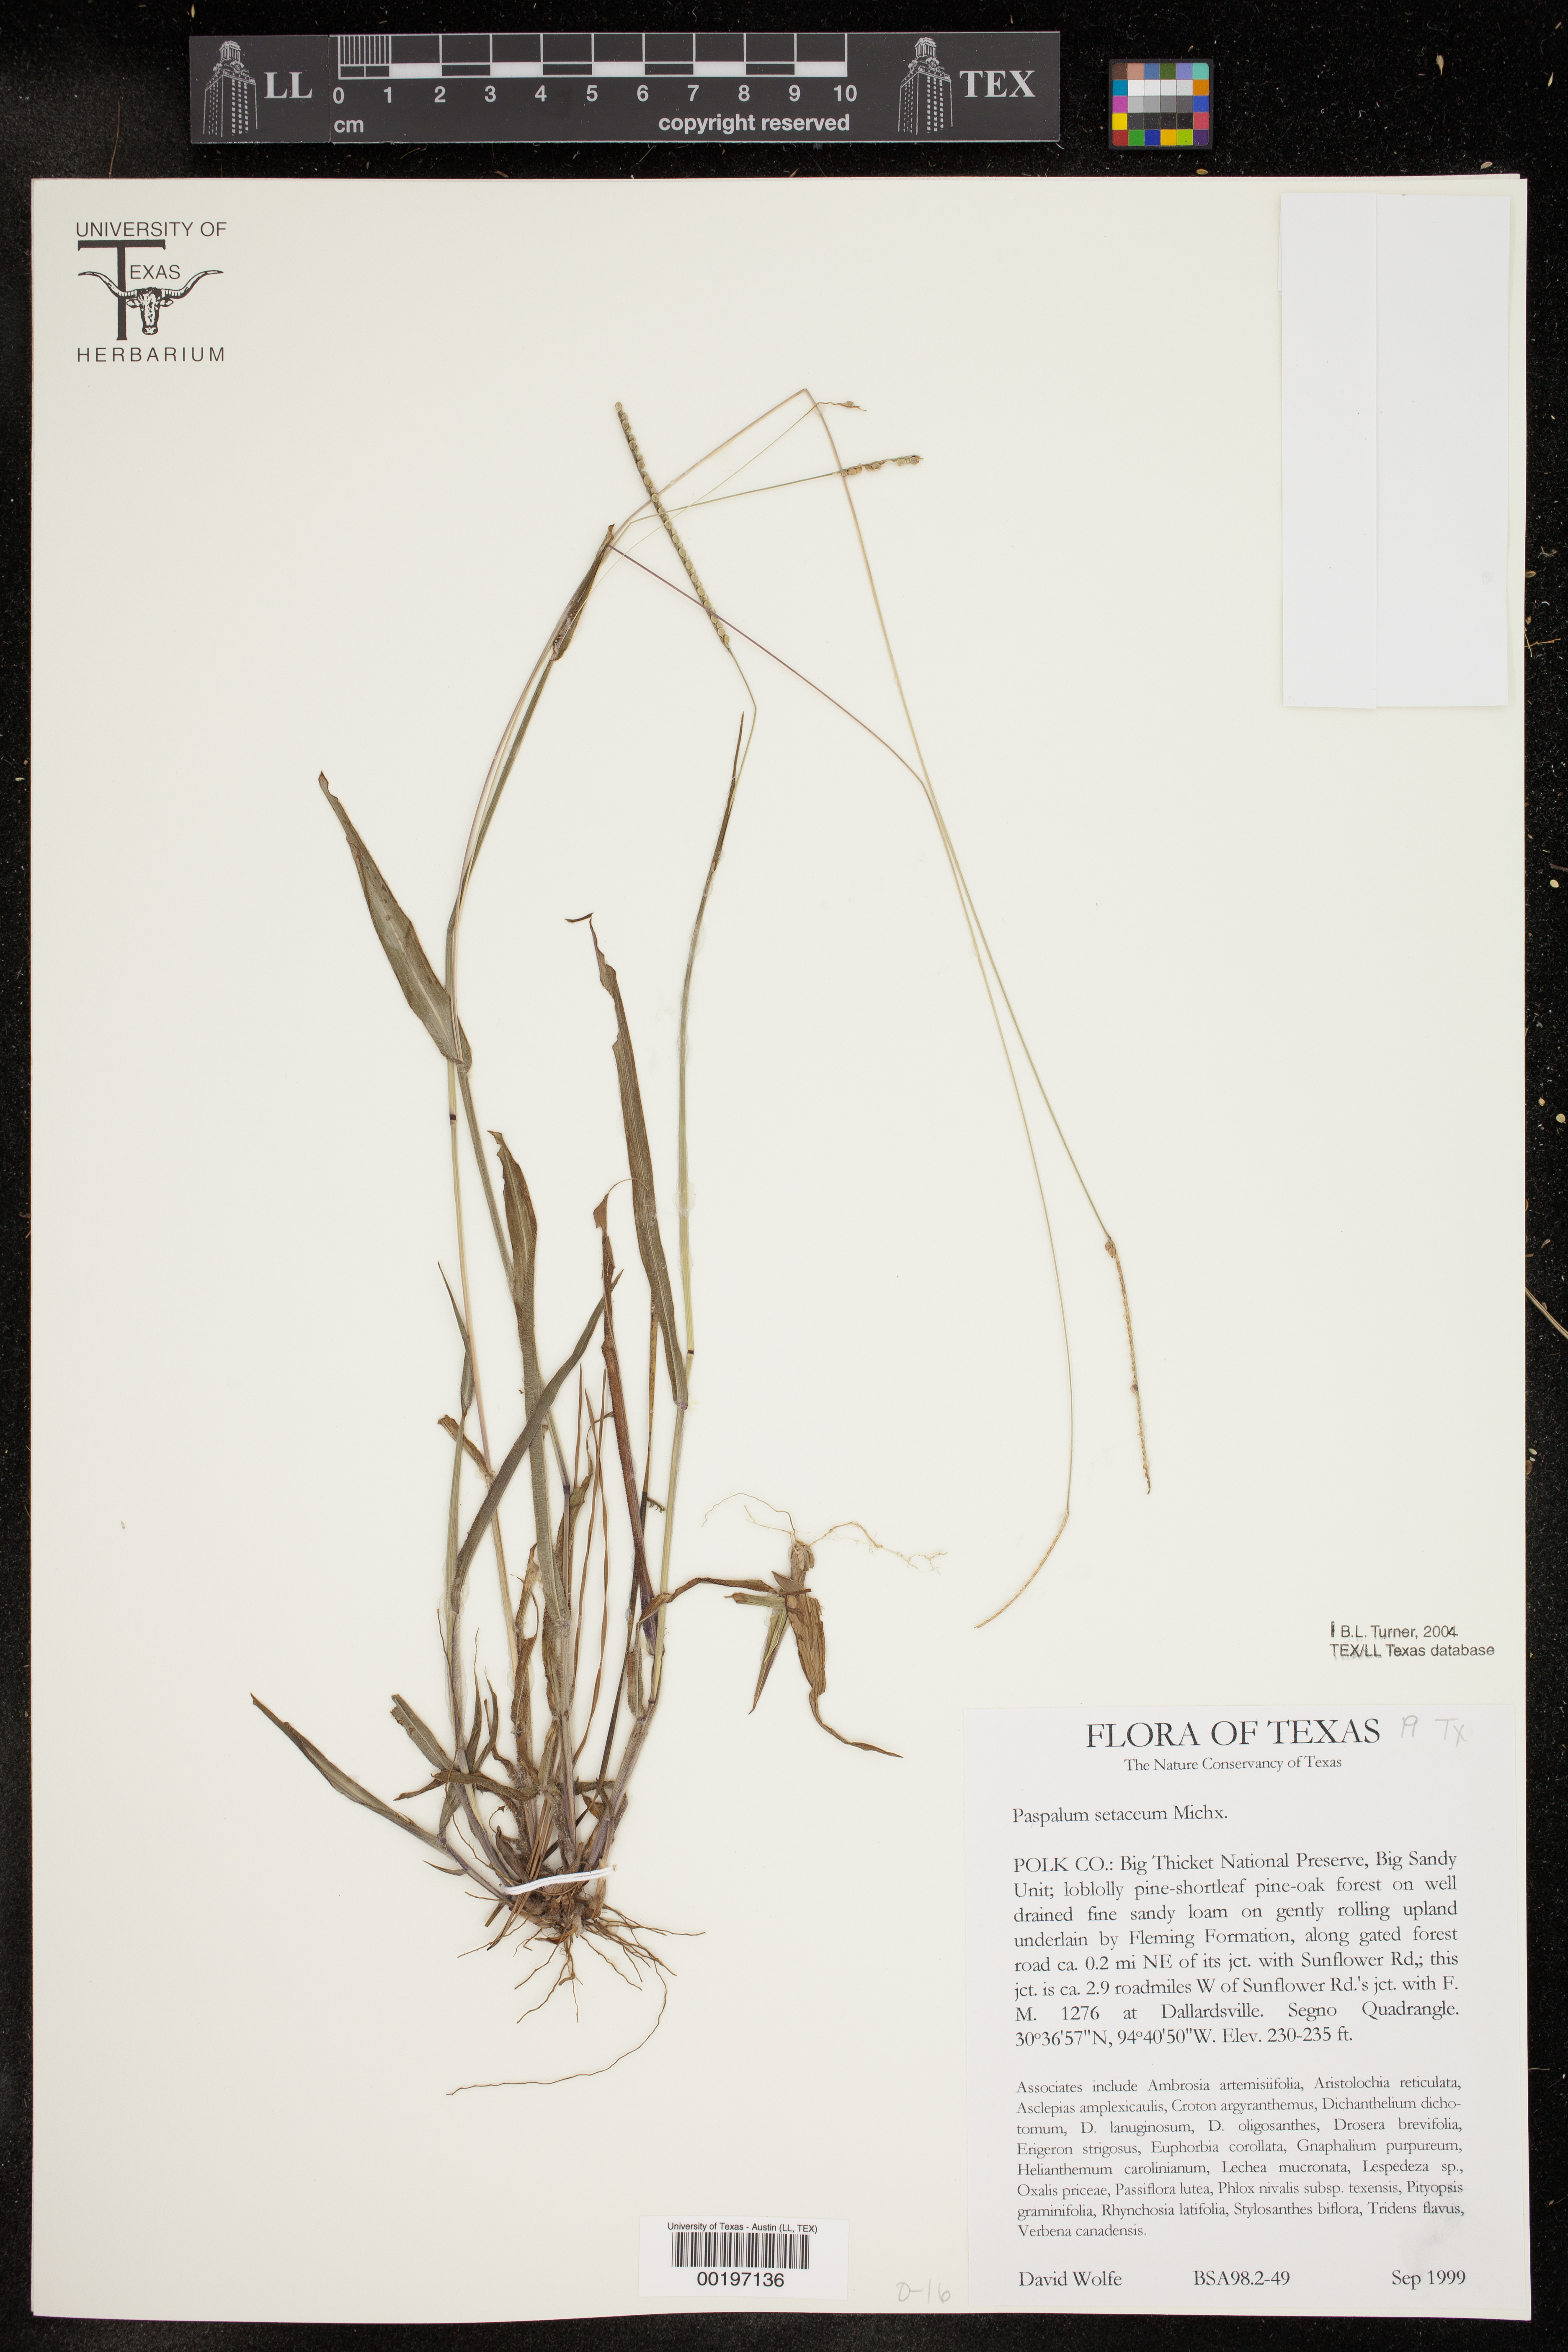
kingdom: Plantae
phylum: Tracheophyta
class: Liliopsida
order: Poales
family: Poaceae
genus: Paspalum
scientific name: Paspalum setaceum
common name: Slender paspalum
